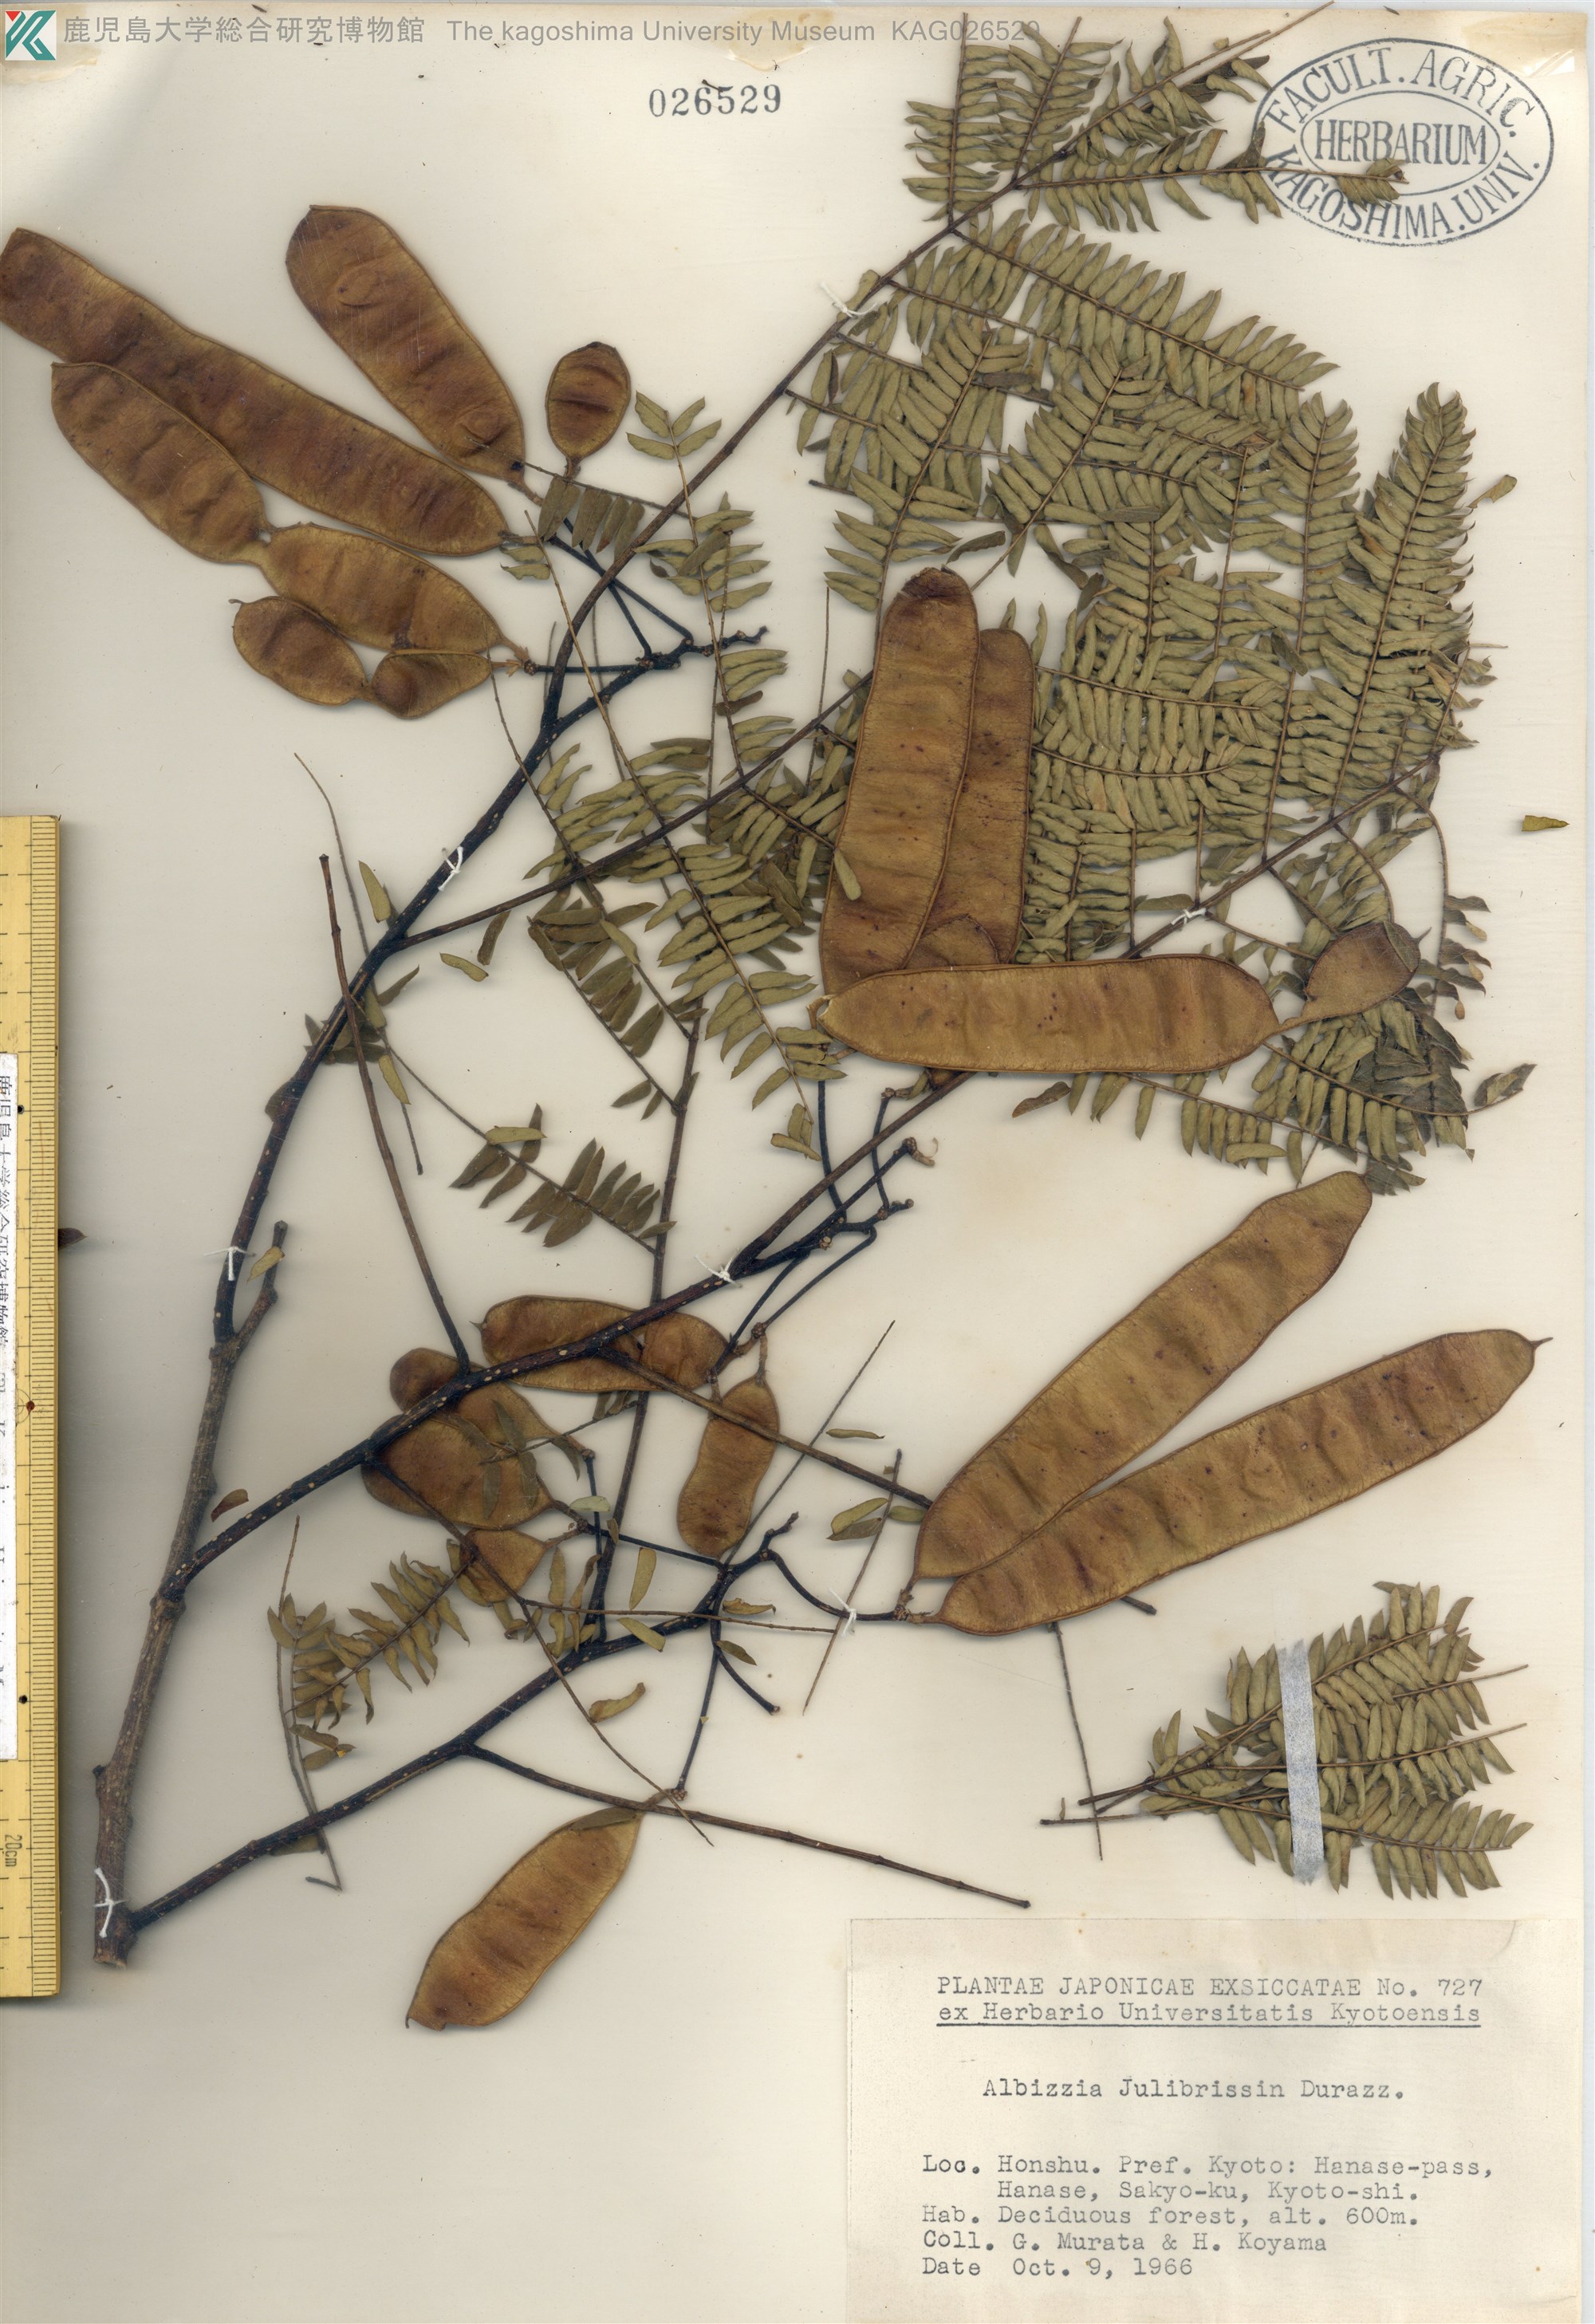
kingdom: Plantae
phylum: Tracheophyta
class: Magnoliopsida
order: Fabales
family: Fabaceae
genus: Albizia
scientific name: Albizia julibrissin
